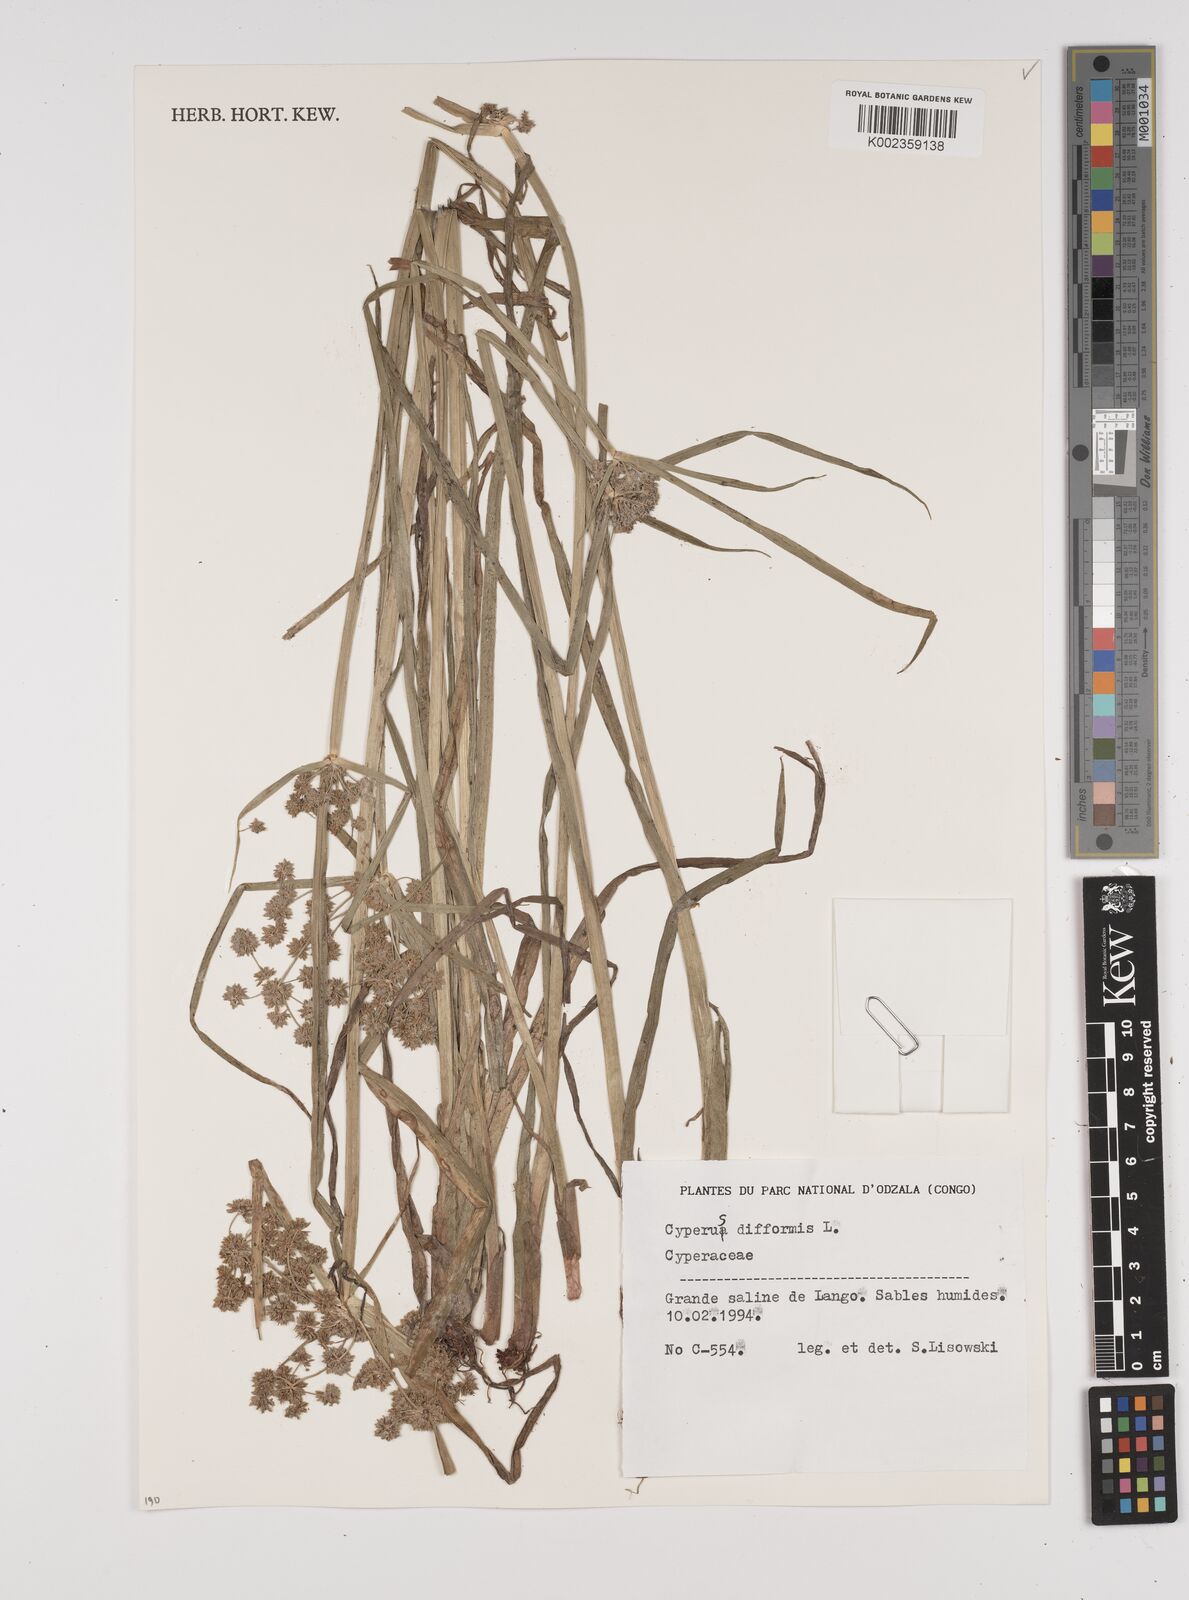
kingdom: Plantae
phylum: Tracheophyta
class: Liliopsida
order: Poales
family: Cyperaceae
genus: Cyperus
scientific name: Cyperus difformis
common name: Variable flatsedge
